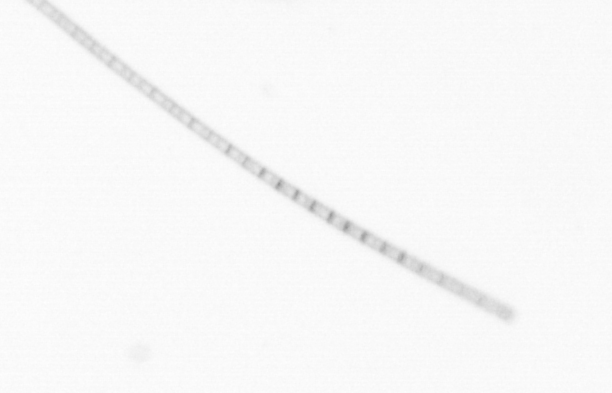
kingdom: Chromista
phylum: Ochrophyta
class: Bacillariophyceae
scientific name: Bacillariophyceae
